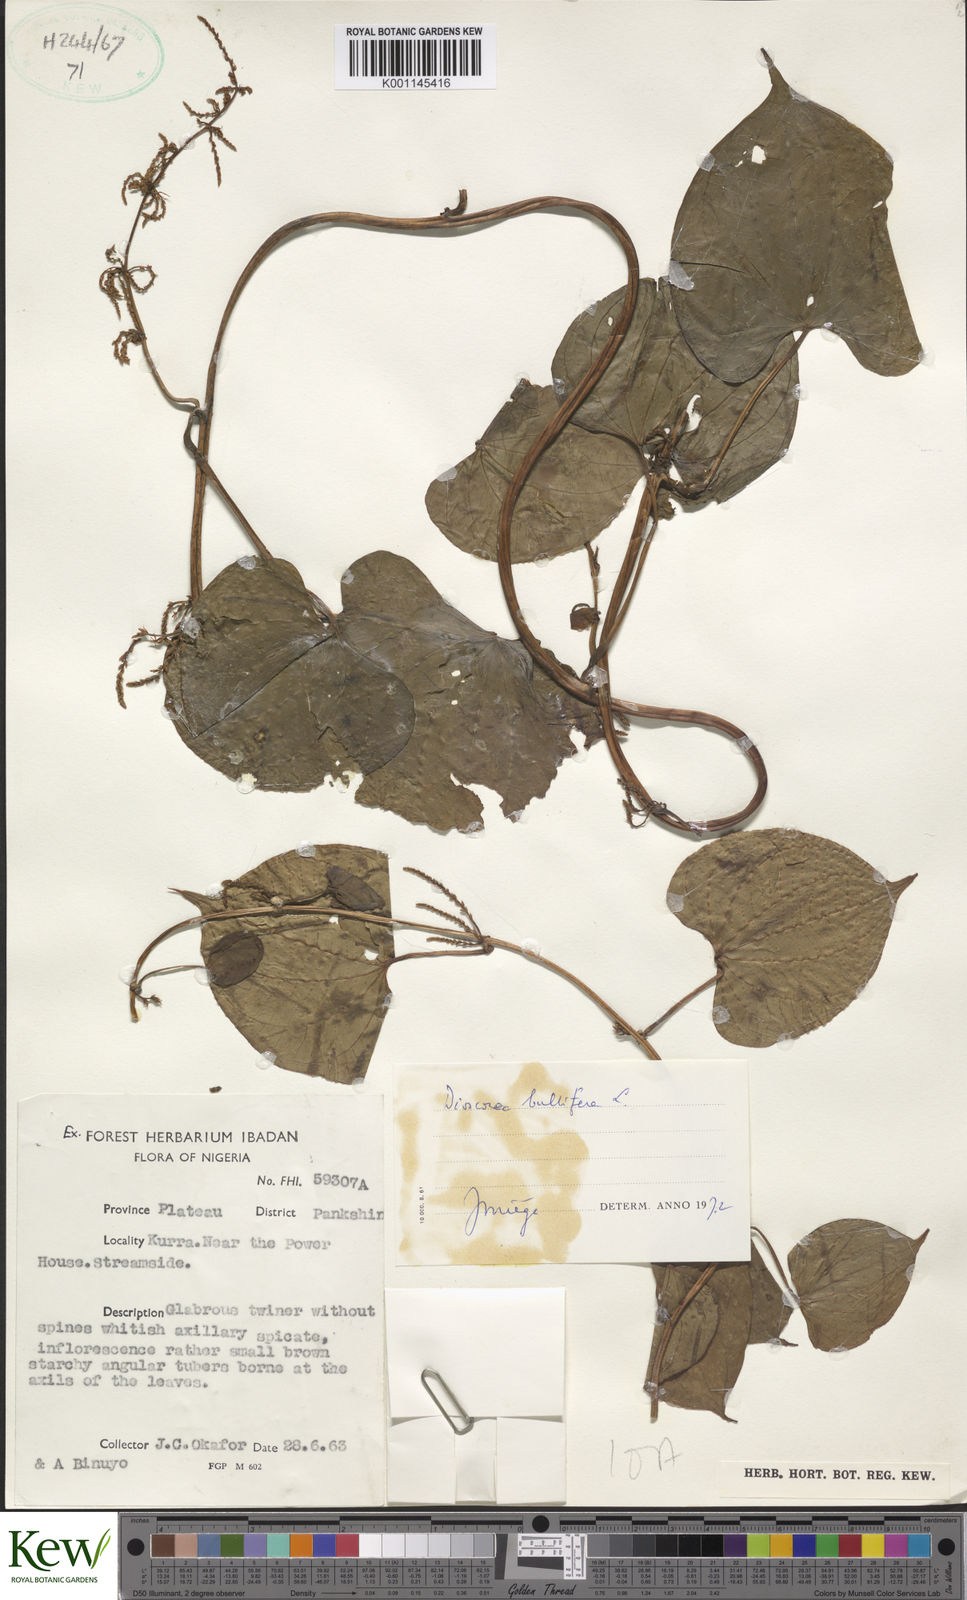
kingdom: Plantae
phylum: Tracheophyta
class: Liliopsida
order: Dioscoreales
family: Dioscoreaceae
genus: Dioscorea
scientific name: Dioscorea bulbifera
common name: Air yam
